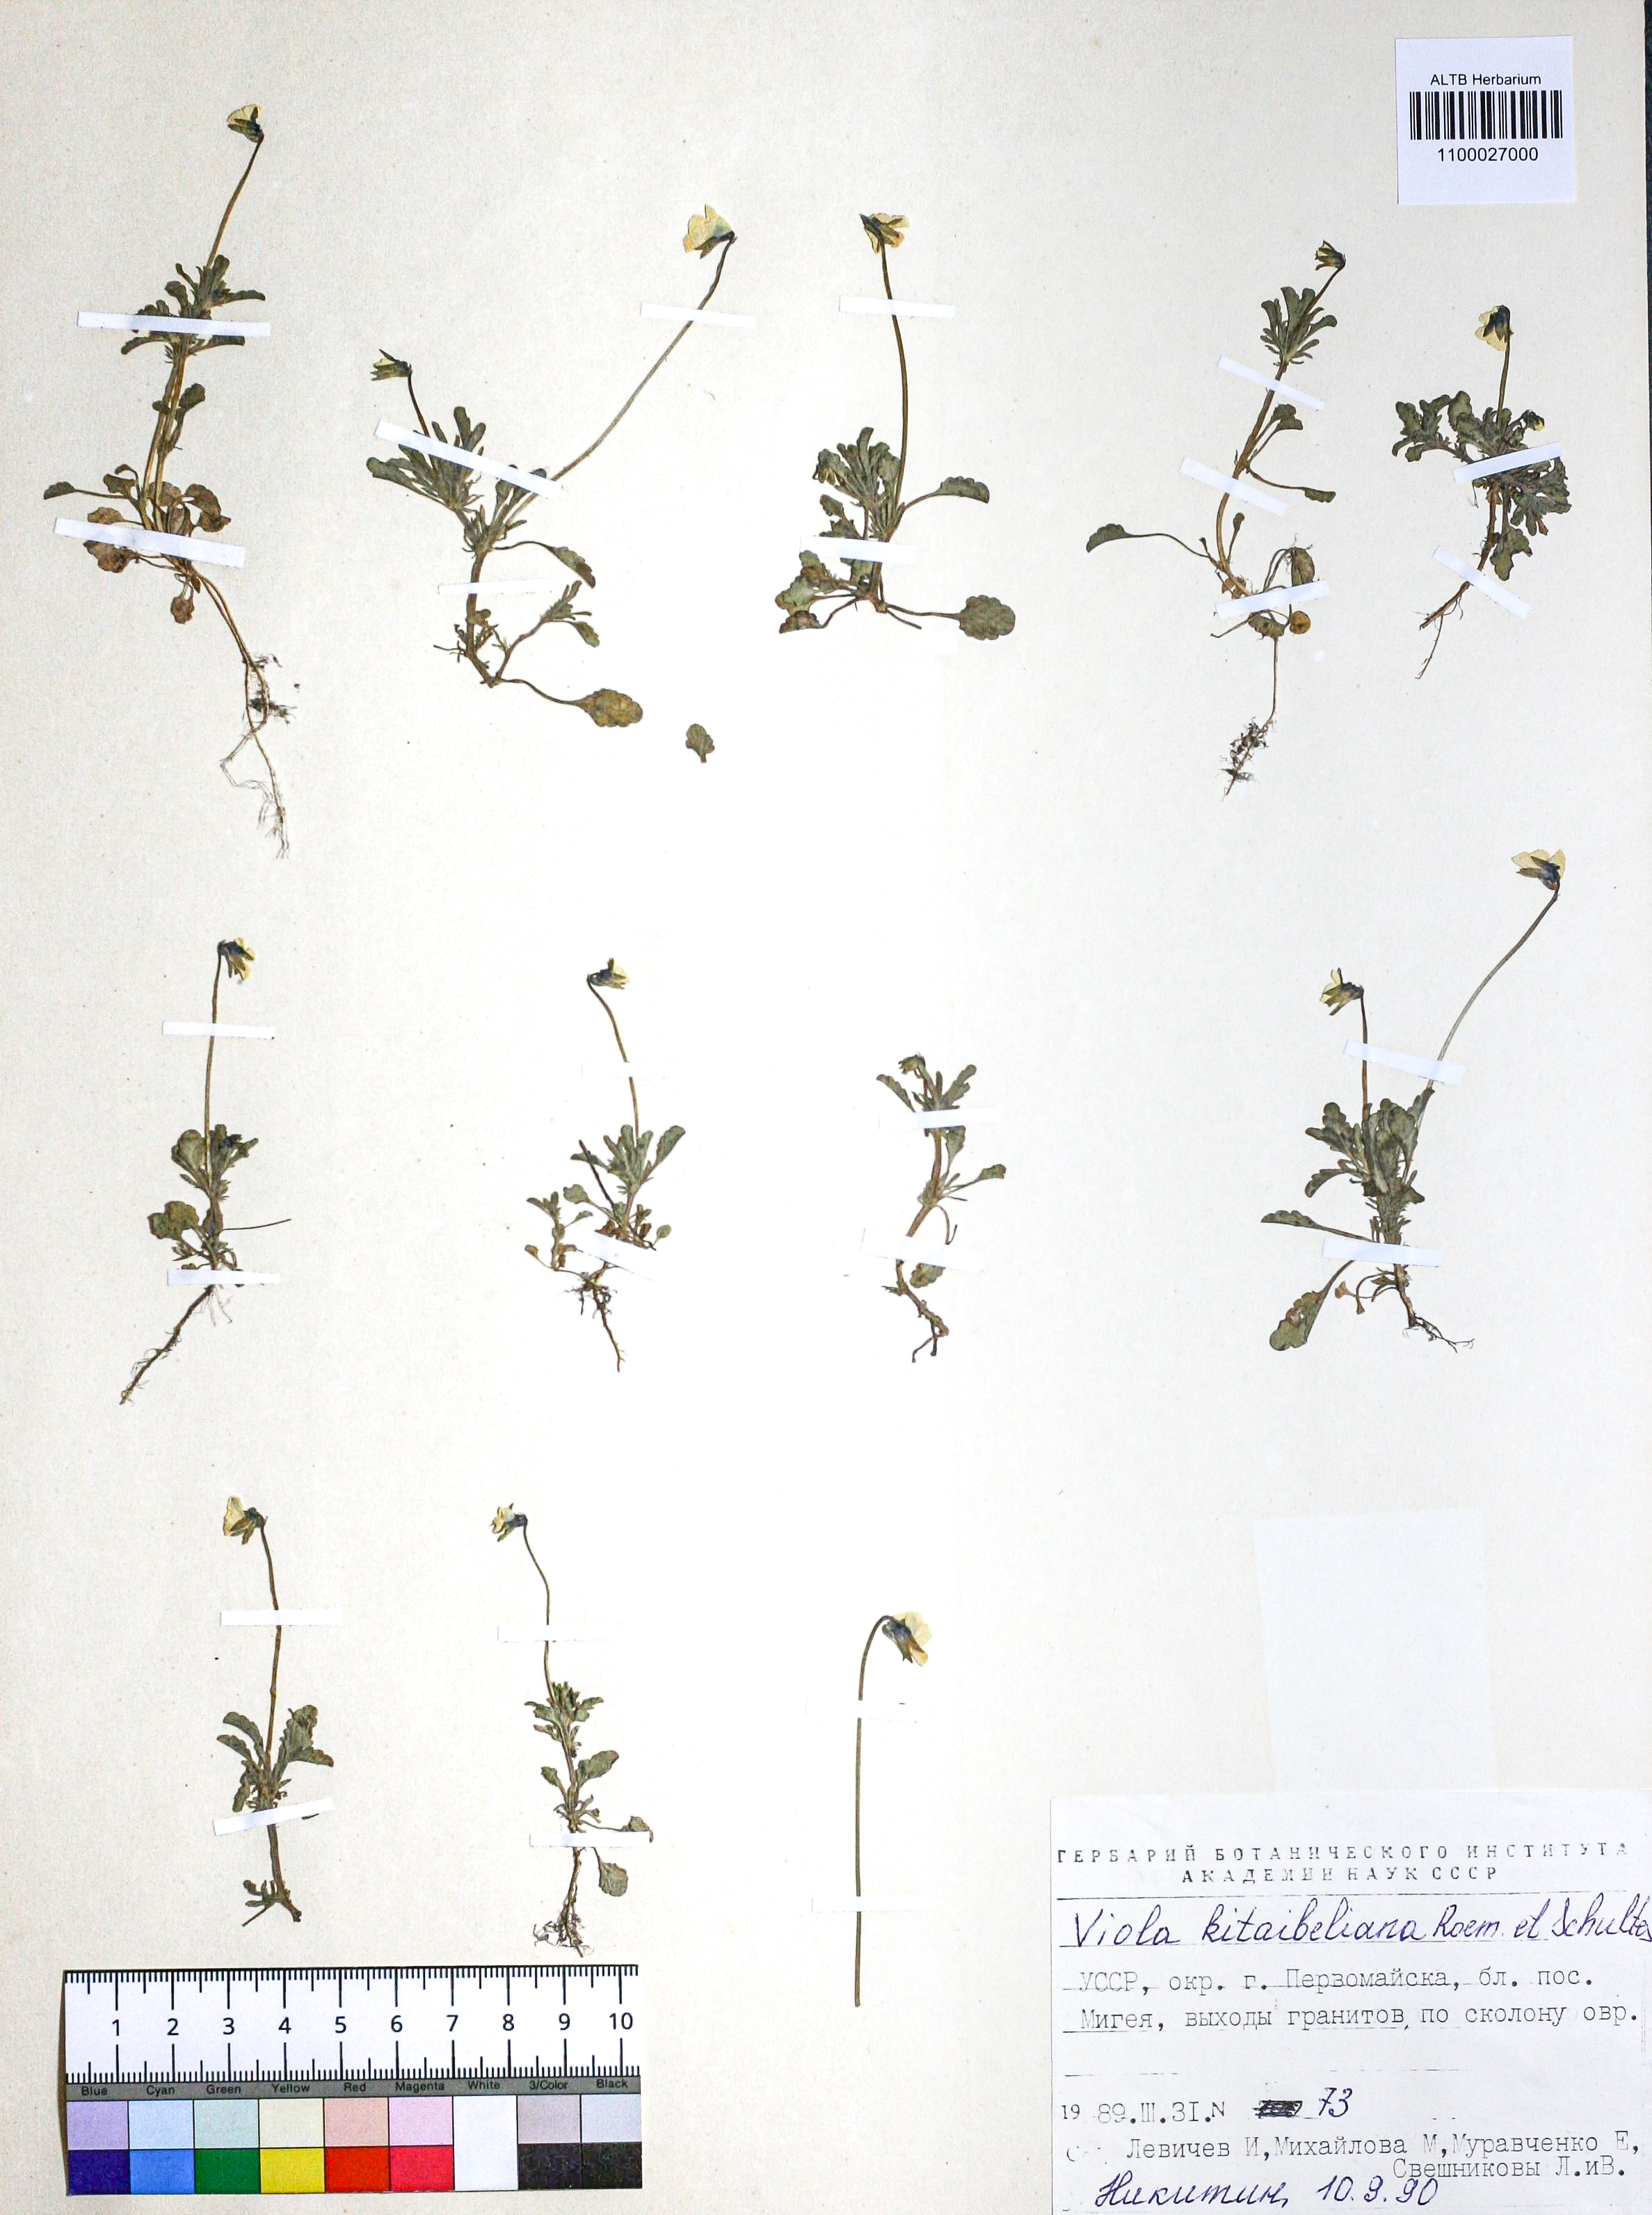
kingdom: Plantae
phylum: Tracheophyta
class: Magnoliopsida
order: Malpighiales
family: Violaceae
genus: Viola
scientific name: Viola kitaibeliana
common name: Dwarf pansy
